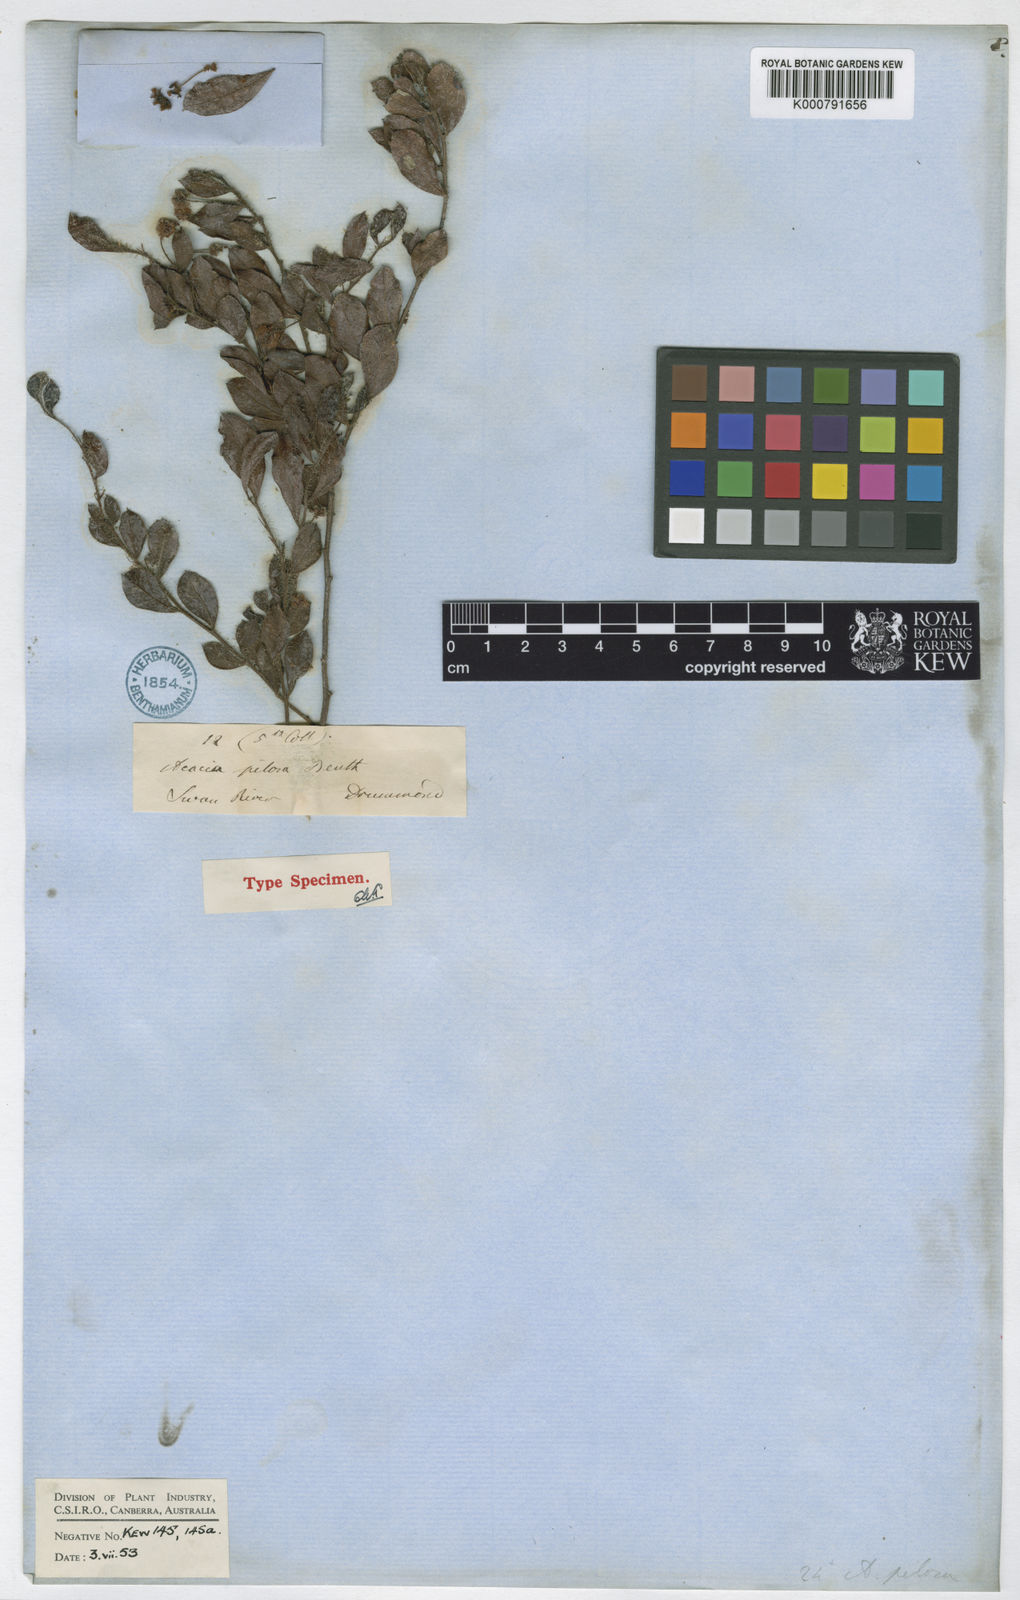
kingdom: Plantae
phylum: Tracheophyta
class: Magnoliopsida
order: Fabales
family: Fabaceae
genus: Acacia
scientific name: Acacia crispula
